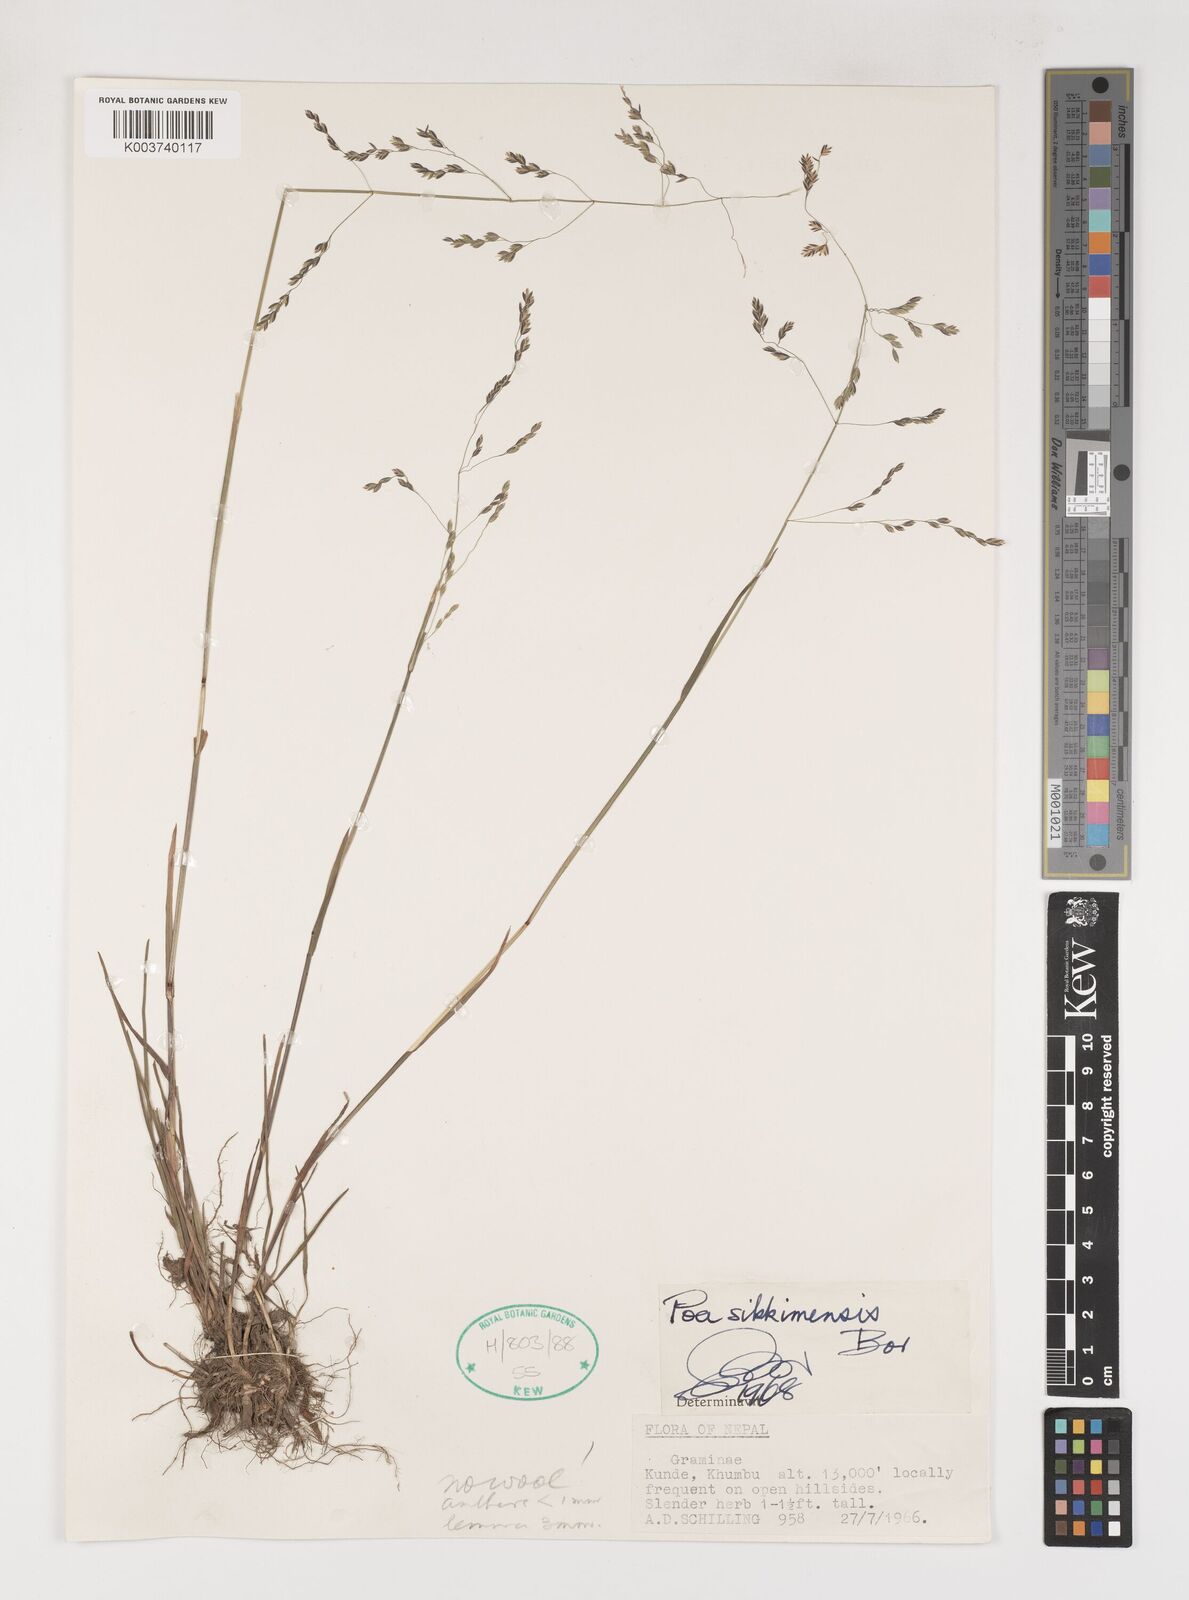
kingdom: Plantae
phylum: Tracheophyta
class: Liliopsida
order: Poales
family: Poaceae
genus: Poa
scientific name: Poa sikkimensis
